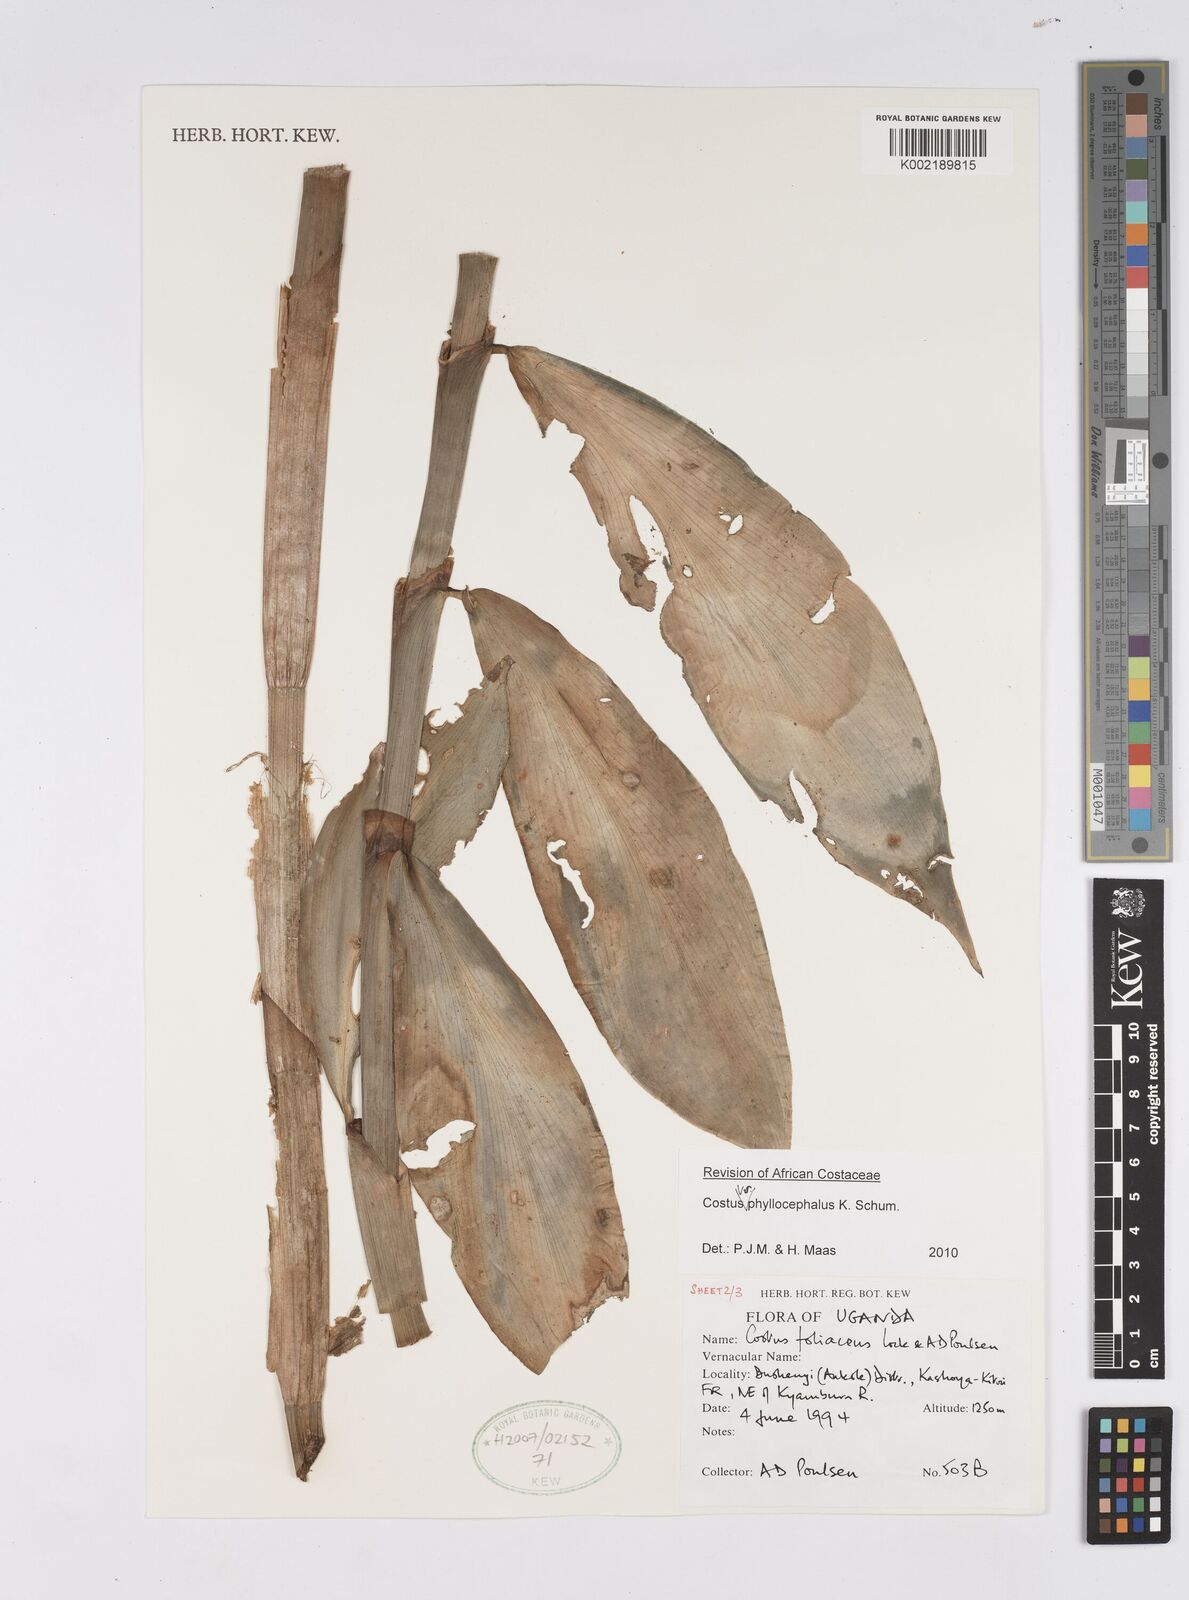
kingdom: Plantae
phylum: Tracheophyta
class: Liliopsida
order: Zingiberales
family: Costaceae
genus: Costus
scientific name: Costus phyllocephalus
